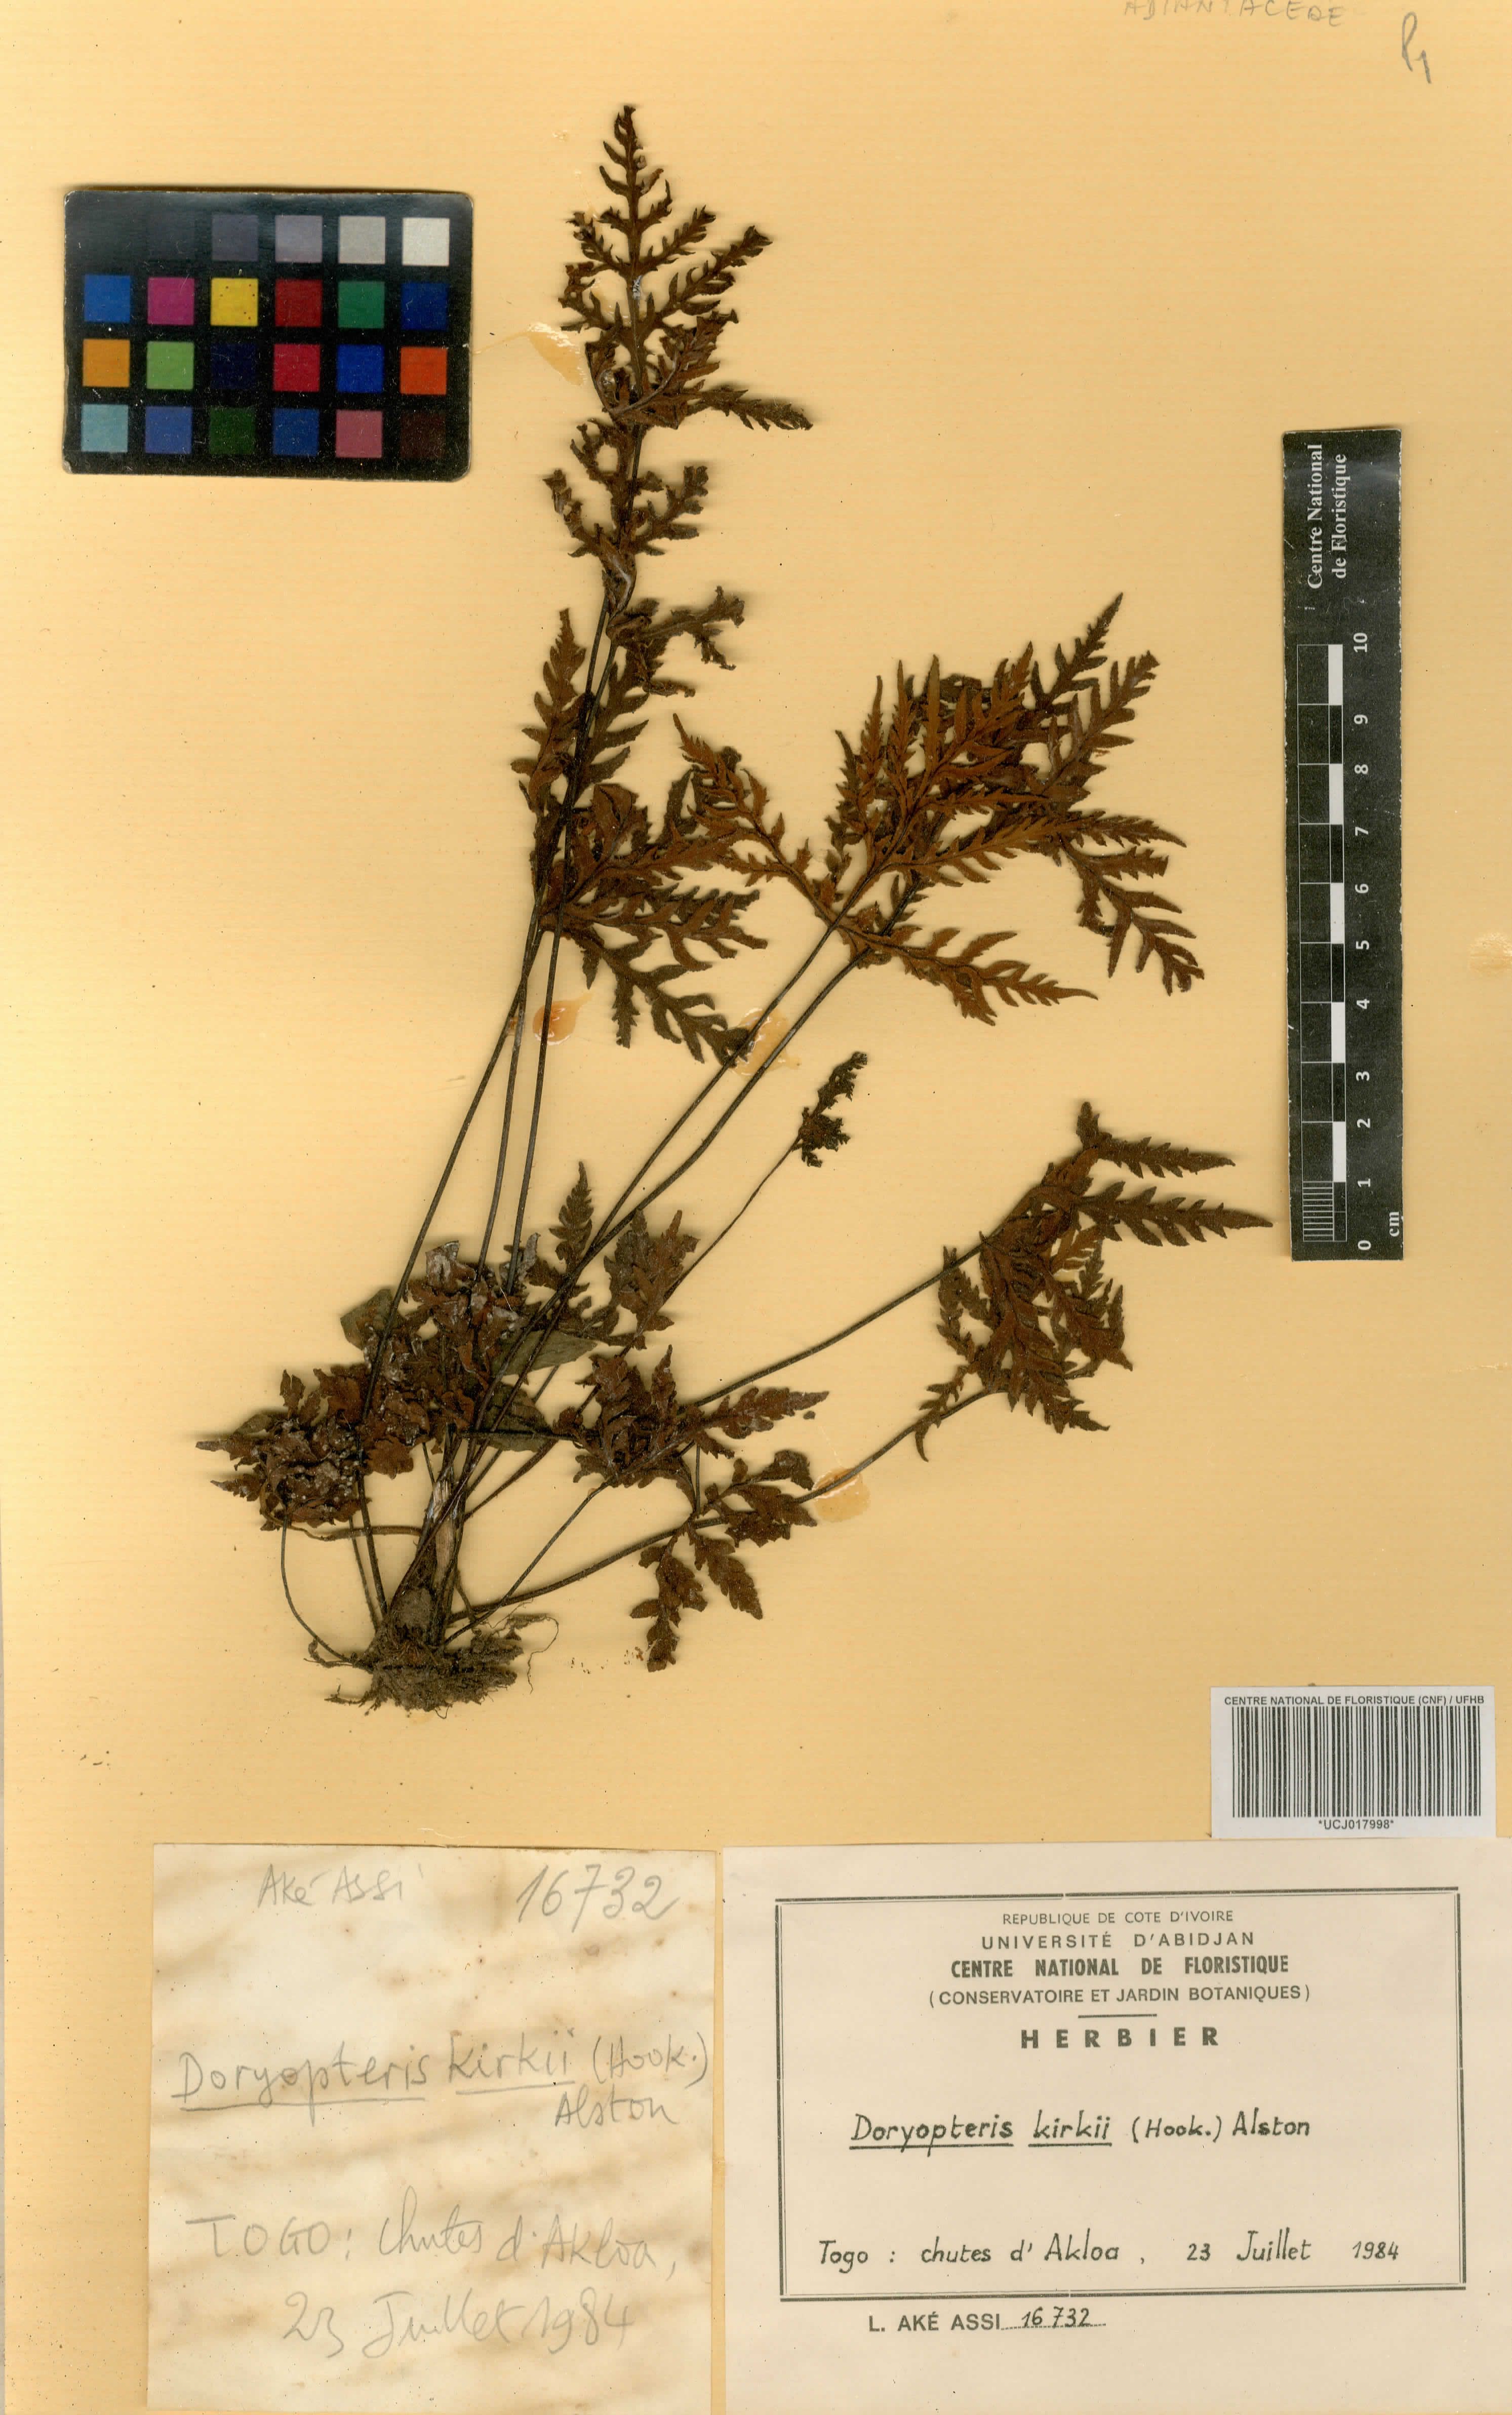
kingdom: Plantae
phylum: Tracheophyta
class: Polypodiopsida
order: Polypodiales
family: Pteridaceae
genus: Doryopteris
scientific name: Doryopteris kirkii
